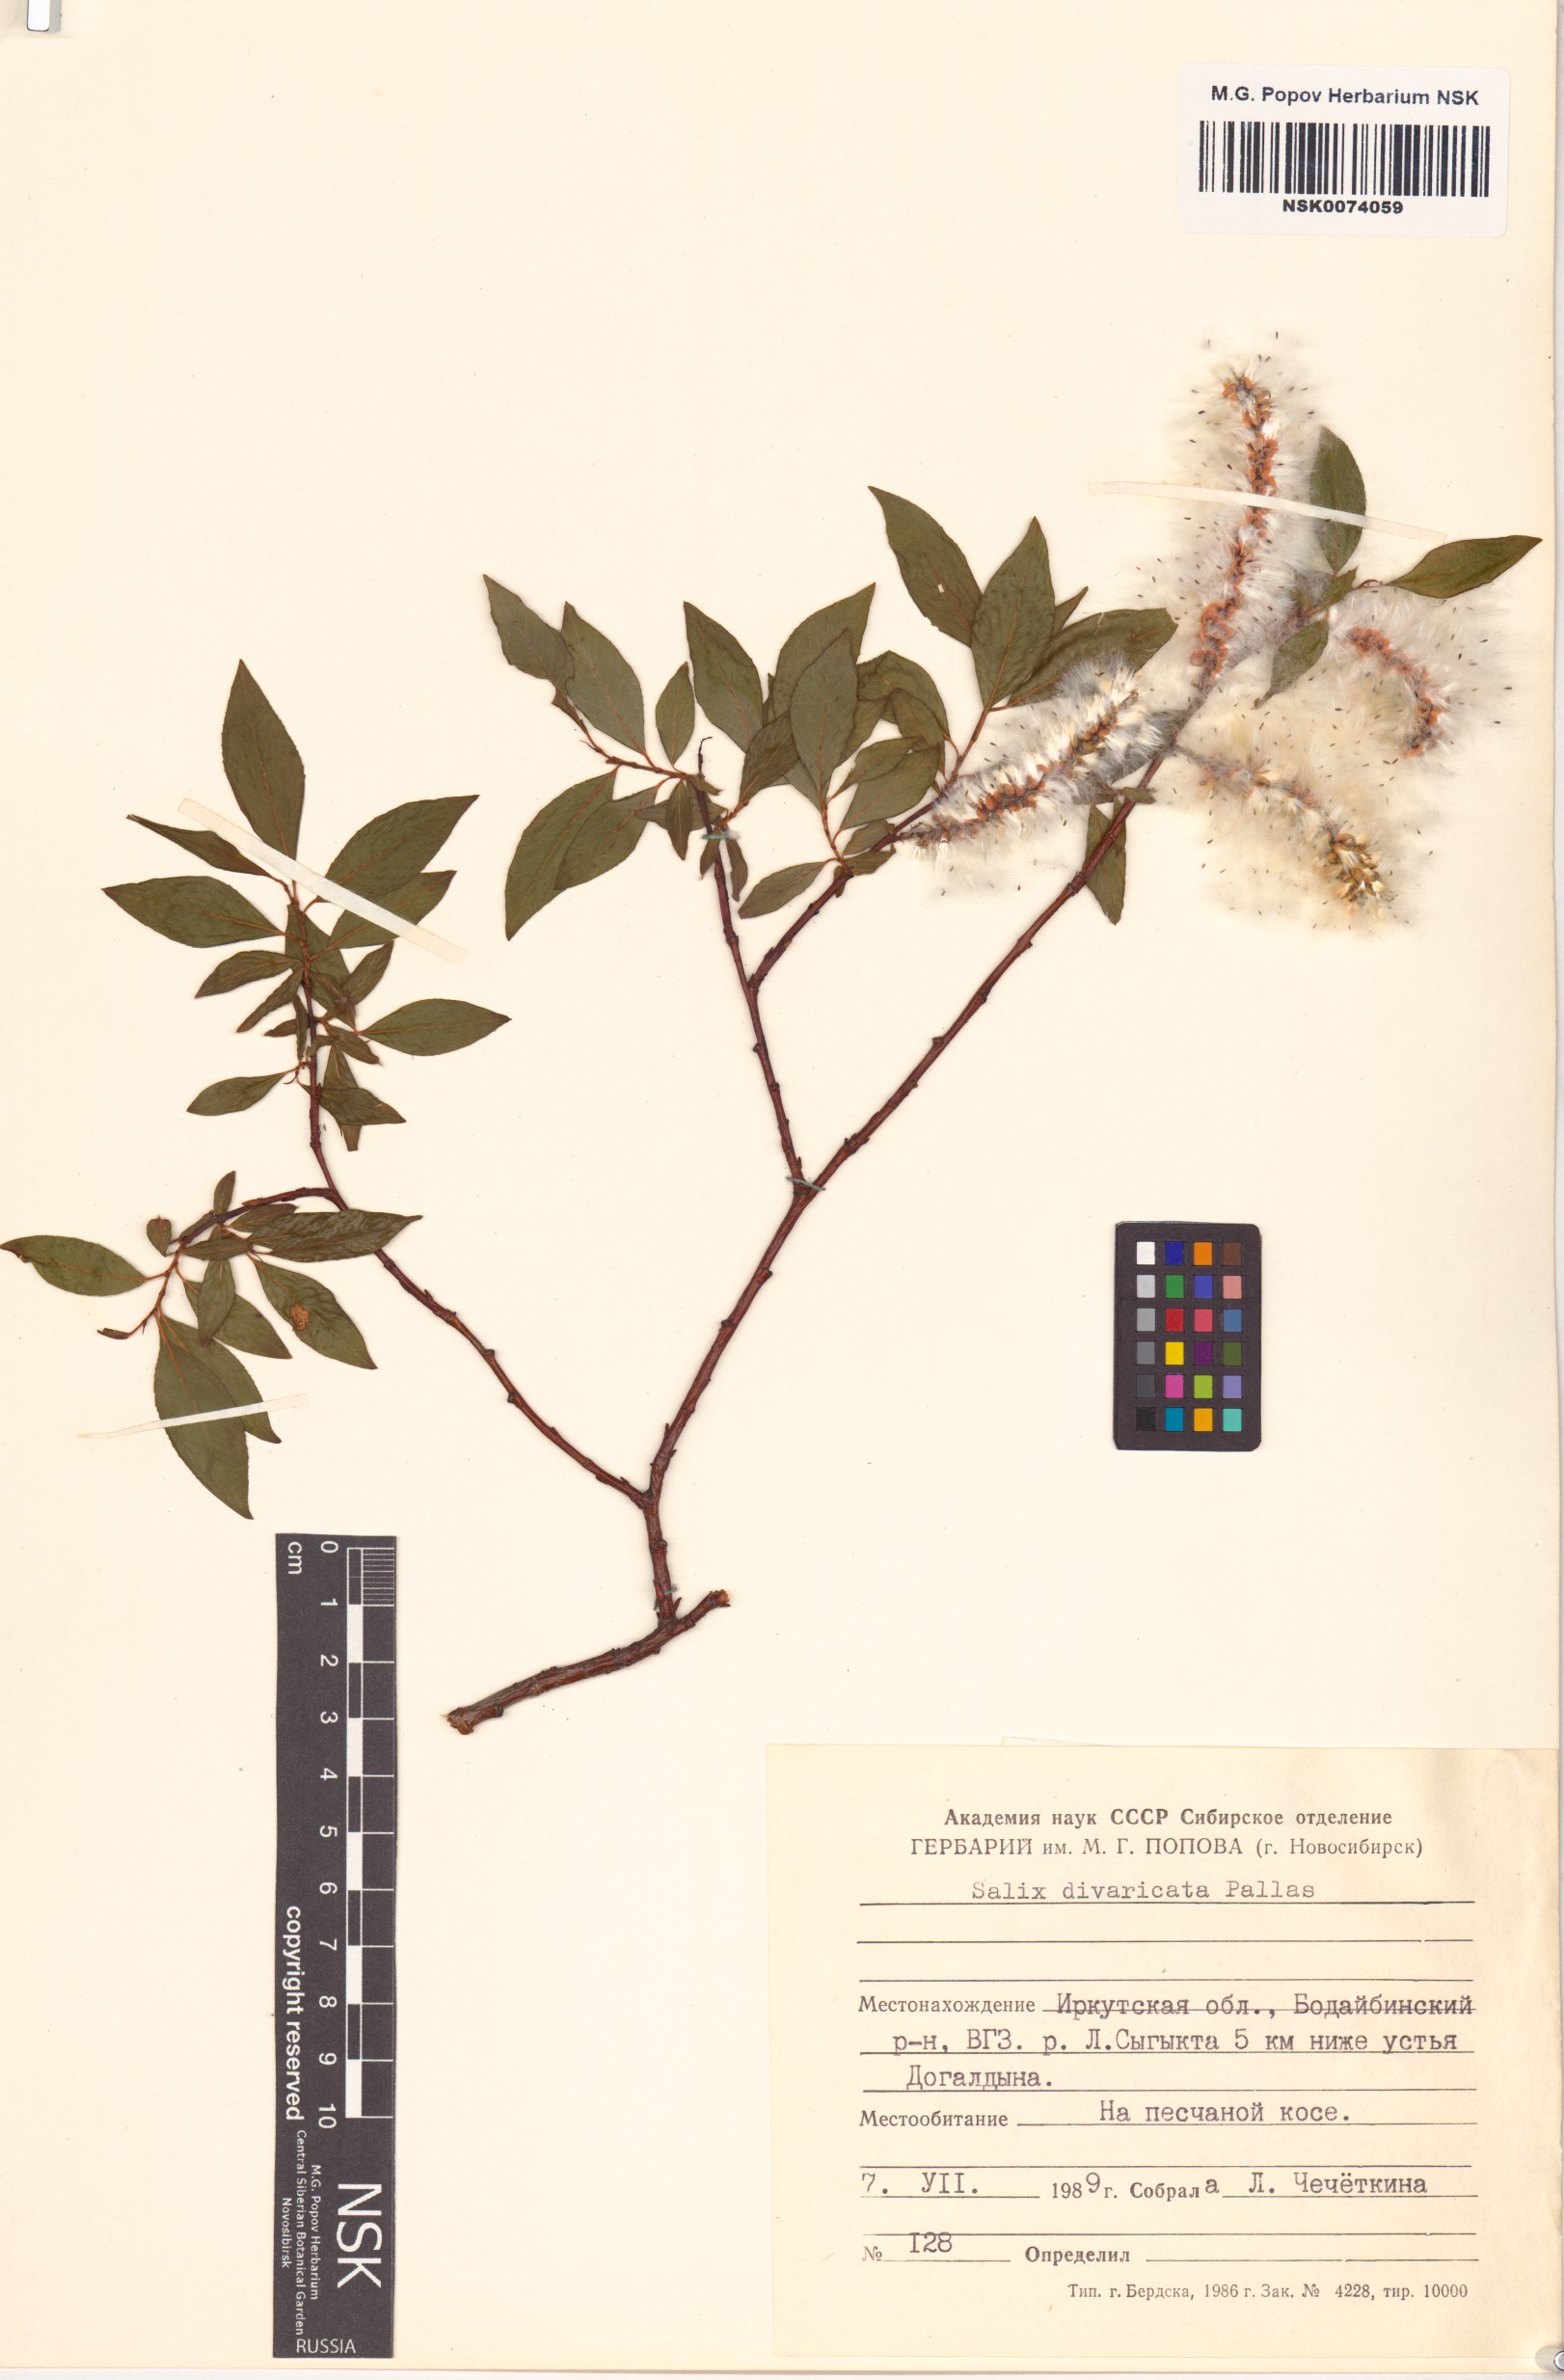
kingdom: Plantae
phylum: Tracheophyta
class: Magnoliopsida
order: Malpighiales
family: Salicaceae
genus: Salix
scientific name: Salix divaricata
